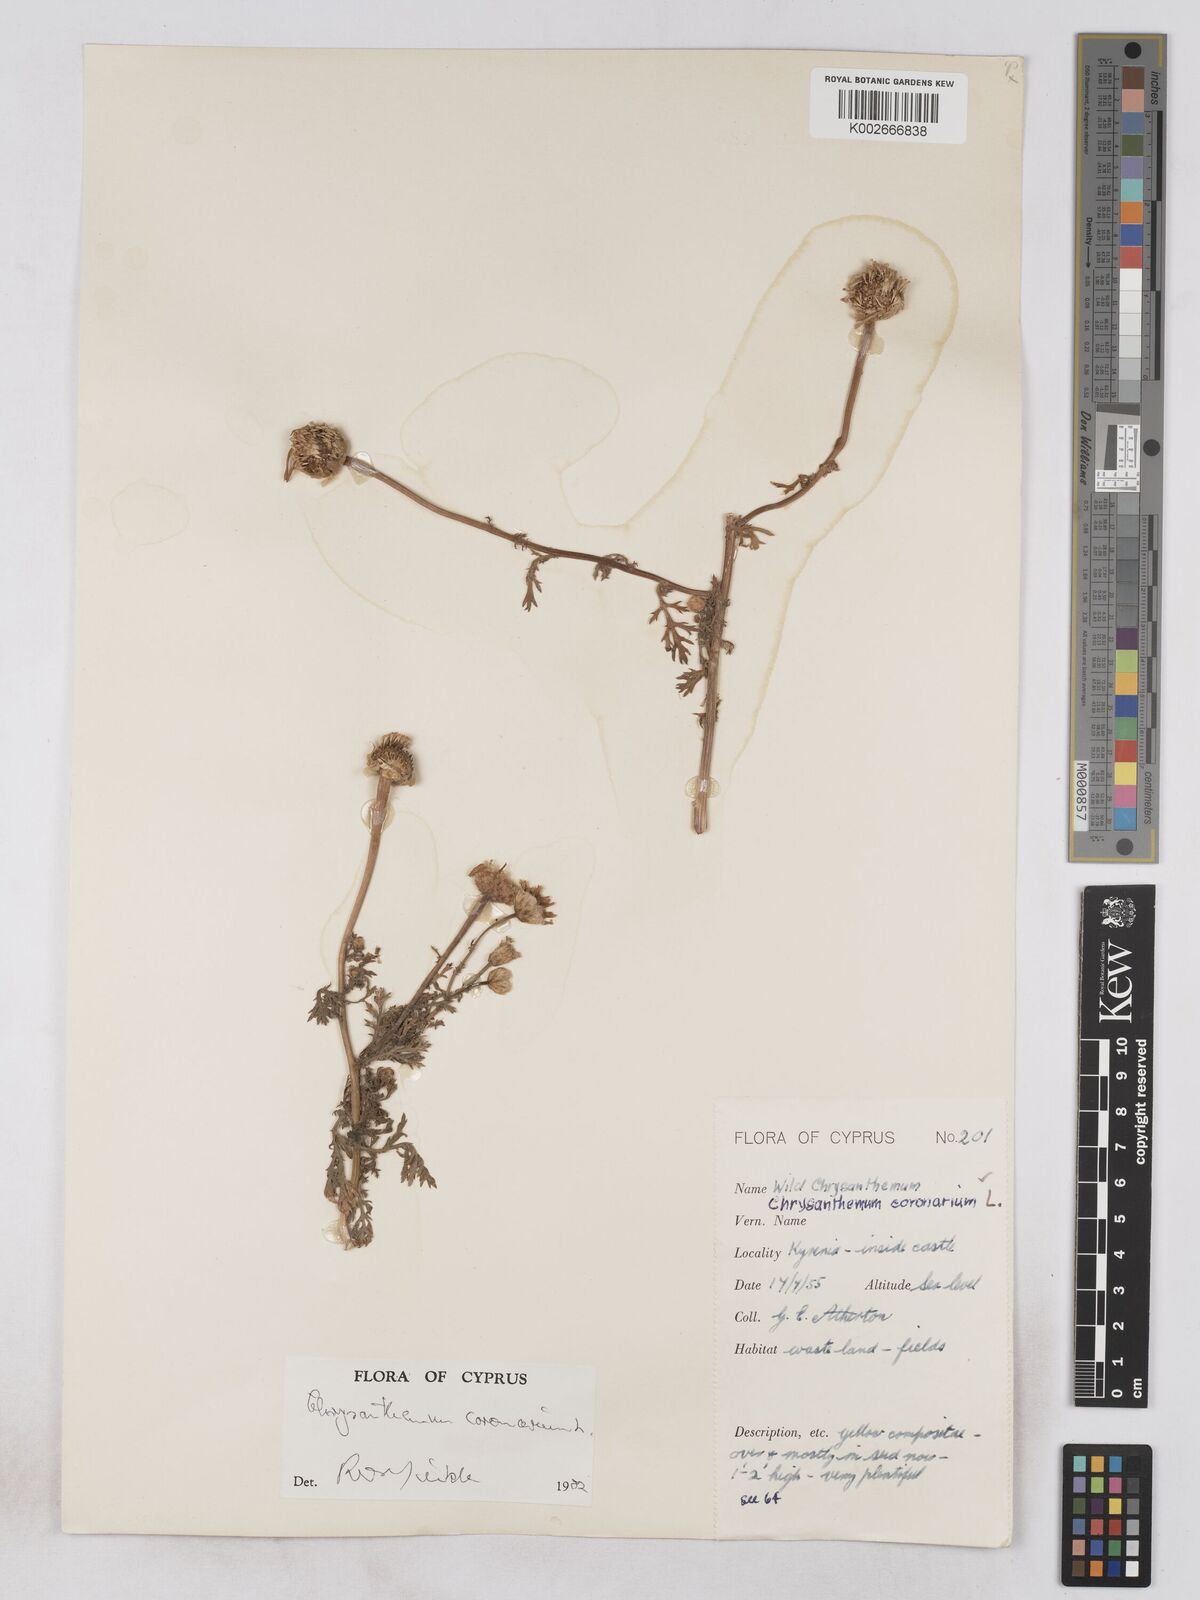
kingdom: Plantae
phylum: Tracheophyta
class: Magnoliopsida
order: Asterales
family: Asteraceae
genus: Glebionis
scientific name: Glebionis coronaria
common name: Crowndaisy
